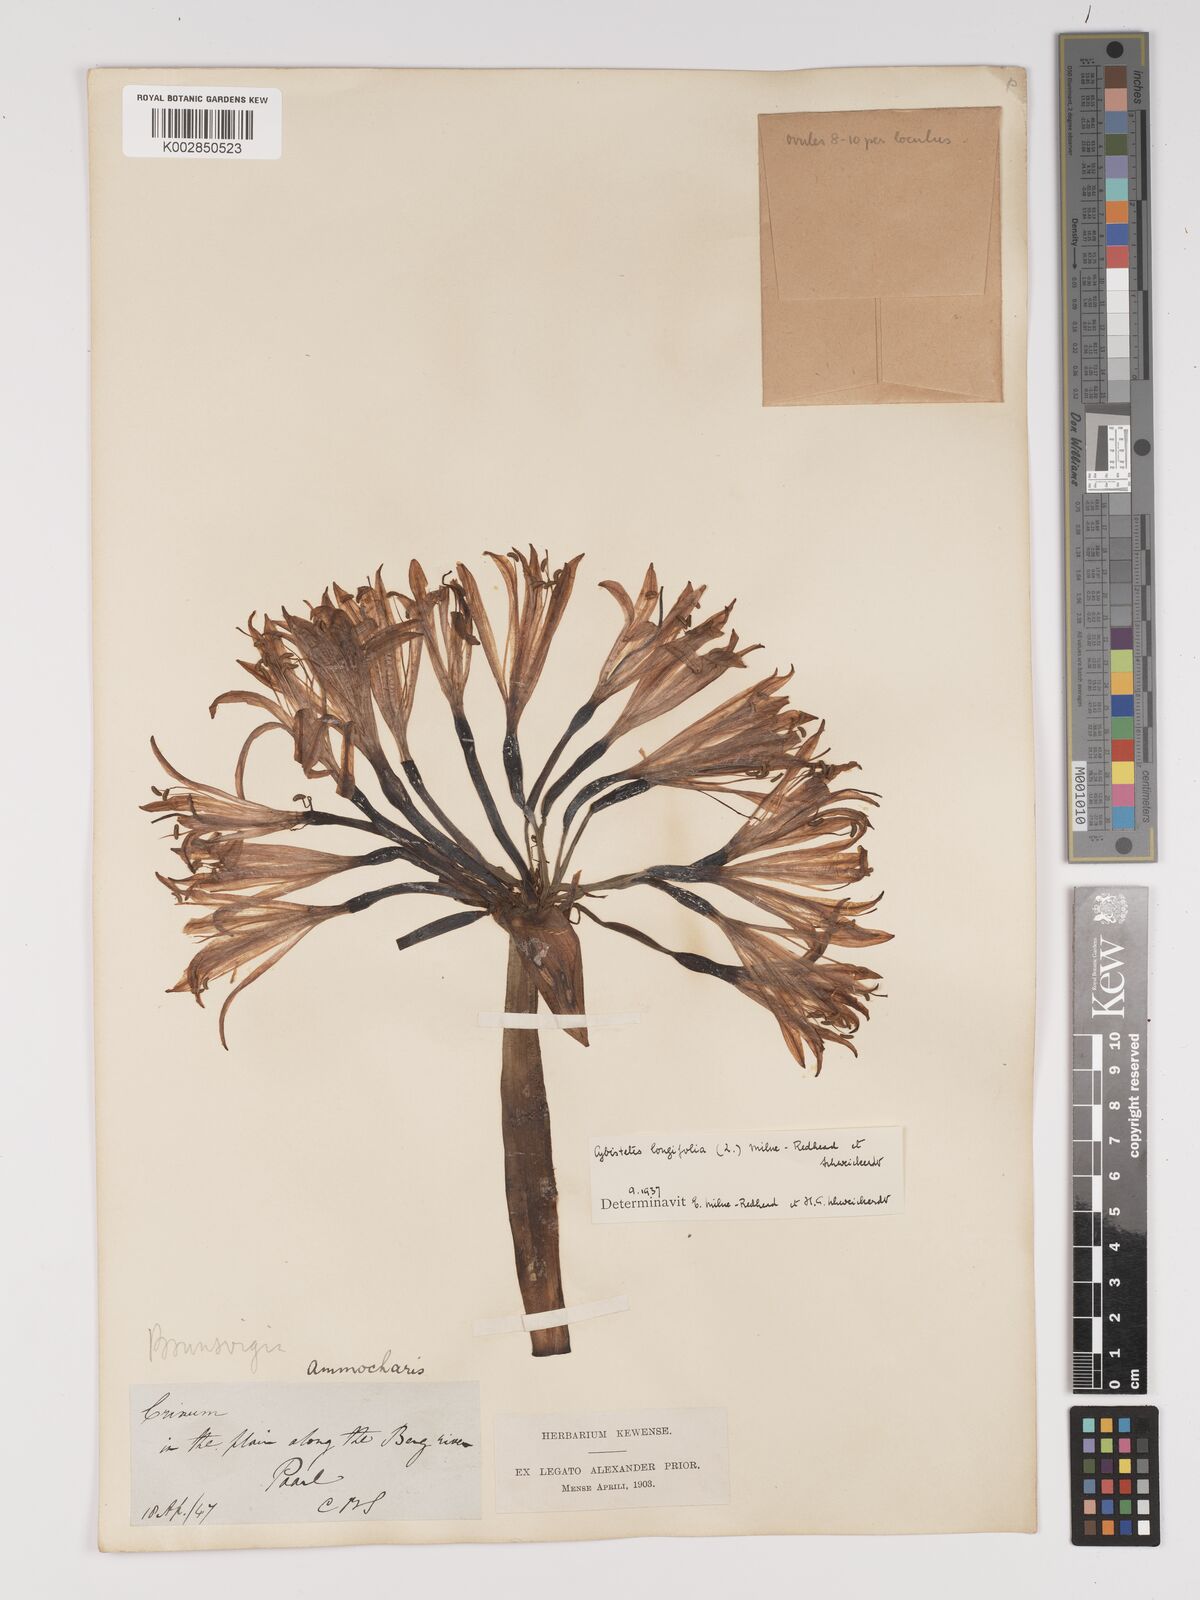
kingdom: Plantae
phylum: Tracheophyta
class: Liliopsida
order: Asparagales
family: Amaryllidaceae
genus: Ammocharis
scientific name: Ammocharis longifolia
